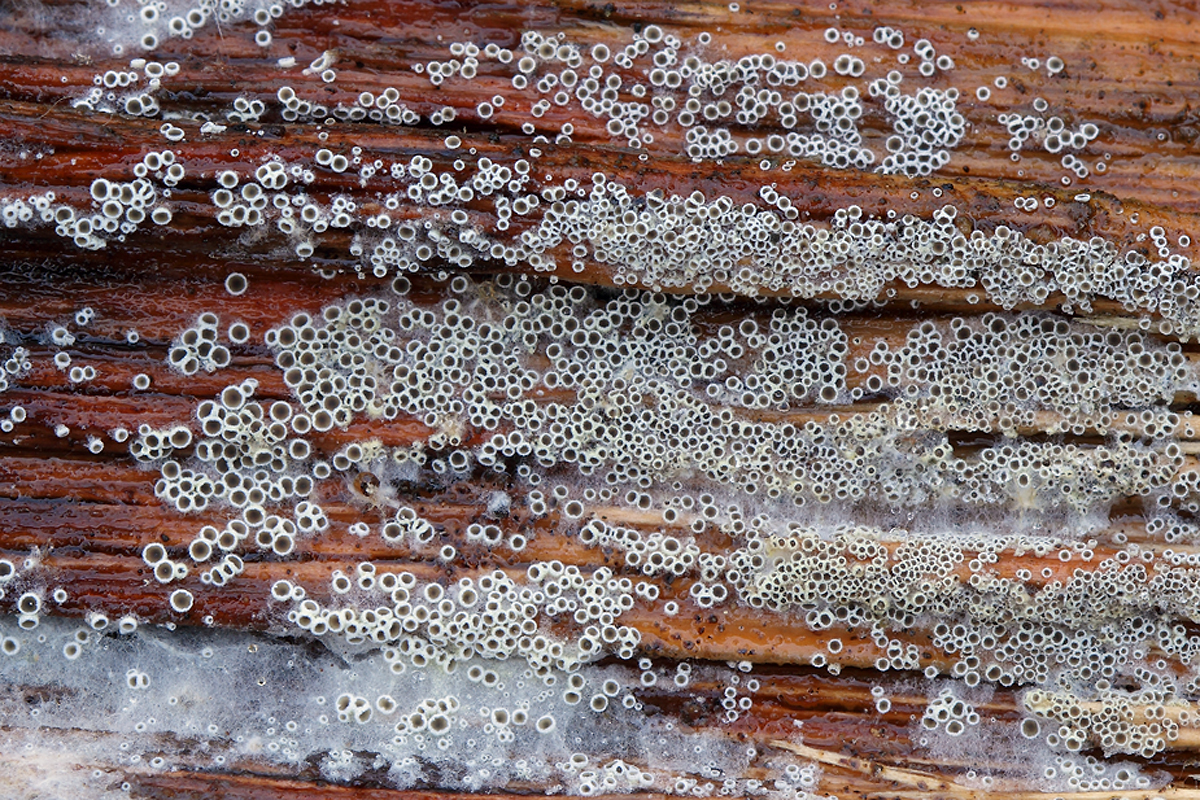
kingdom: Fungi
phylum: Ascomycota
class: Leotiomycetes
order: Helotiales
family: Arachnopezizaceae
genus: Eriopezia
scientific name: Eriopezia caesia
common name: ege-spindskive
